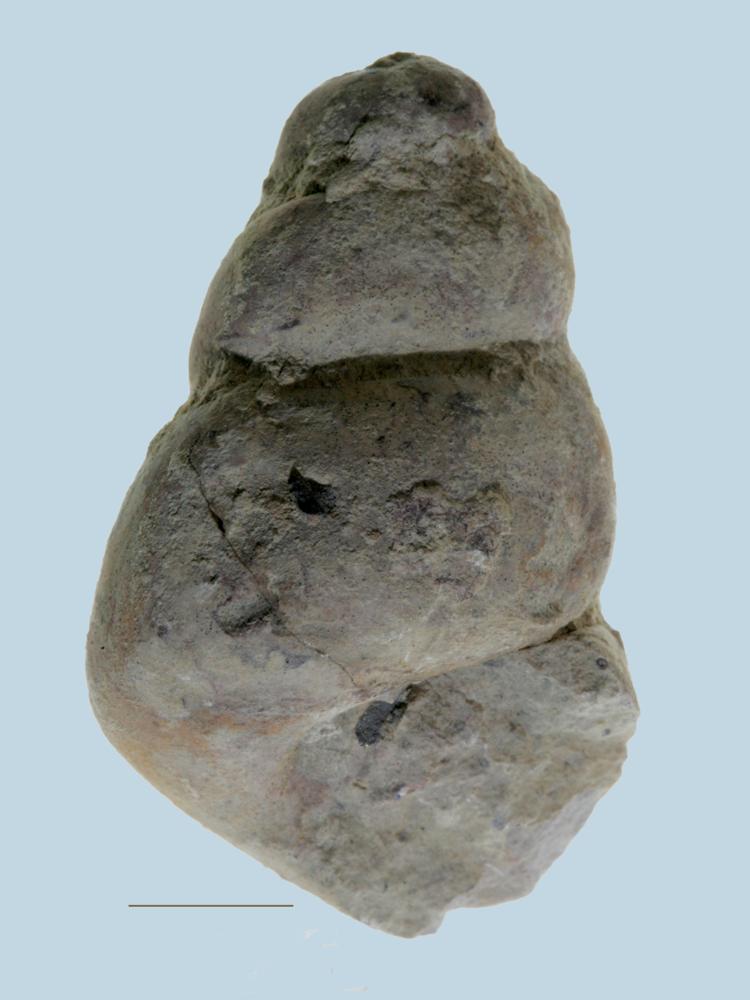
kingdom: Animalia
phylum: Mollusca
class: Gastropoda
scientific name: Gastropoda
